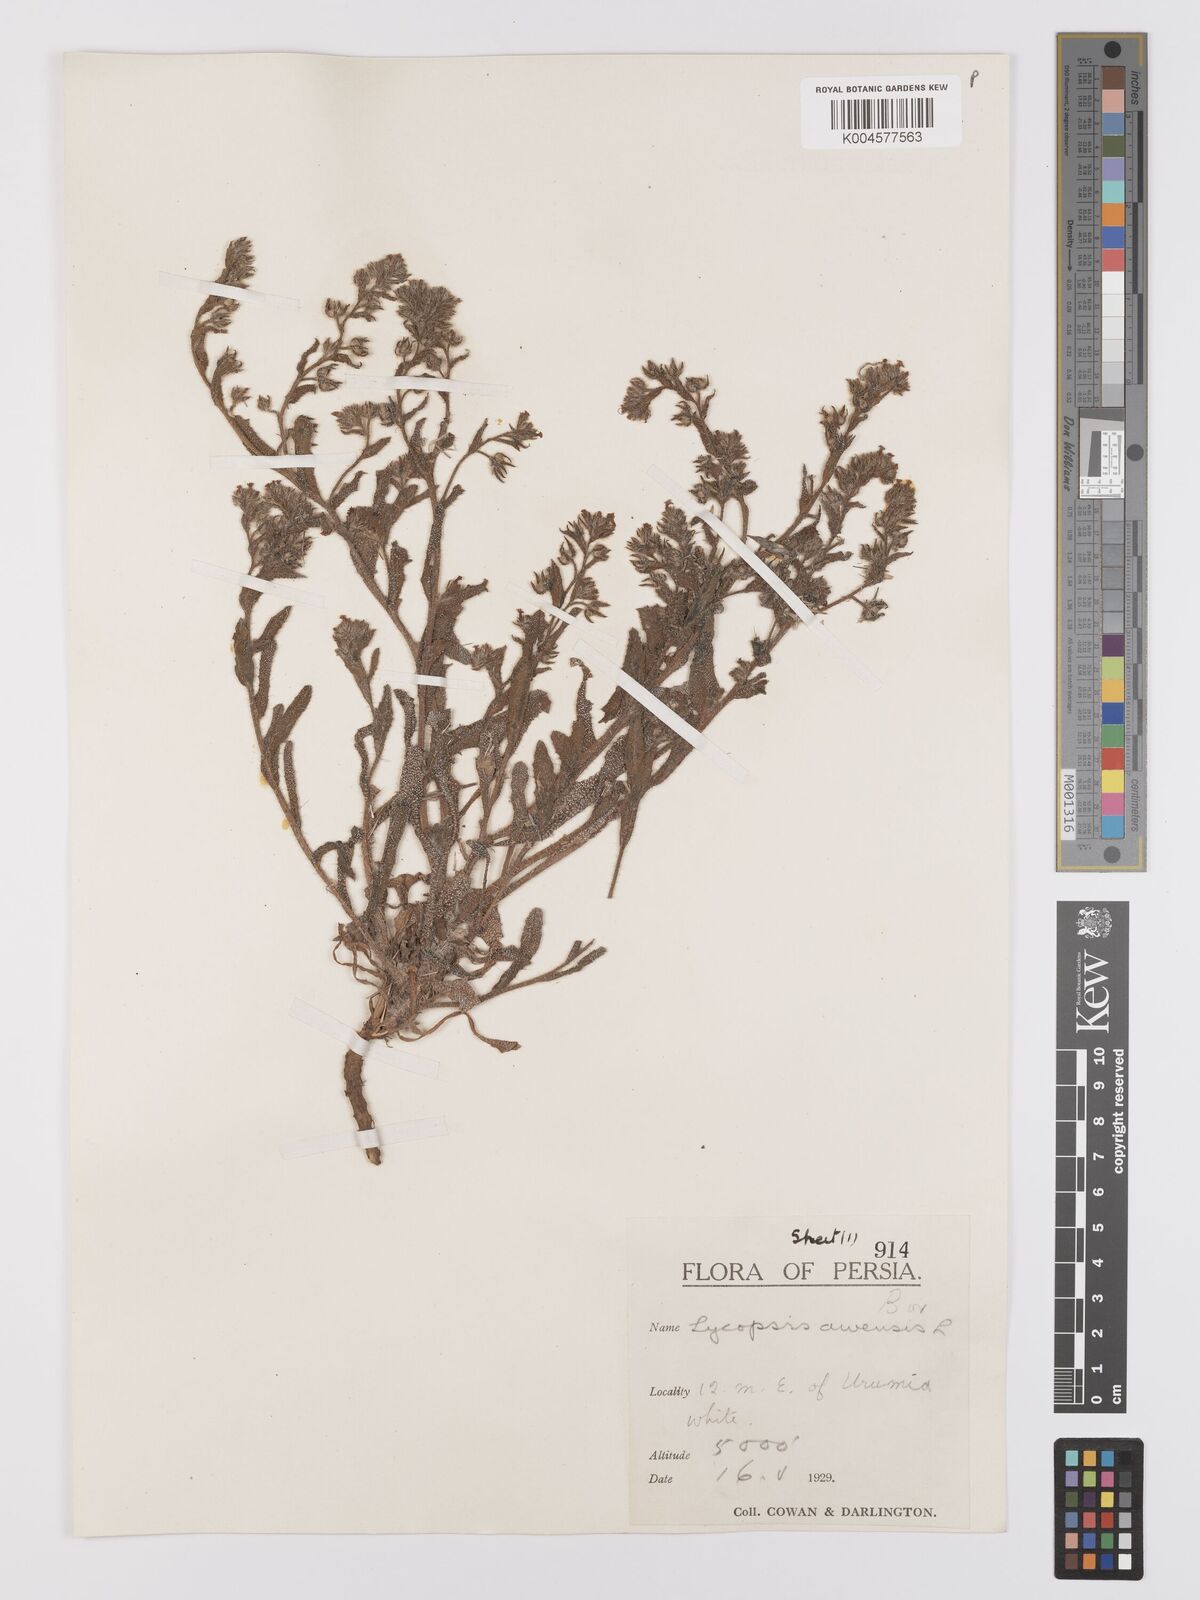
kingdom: Plantae
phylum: Tracheophyta
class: Magnoliopsida
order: Boraginales
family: Boraginaceae
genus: Lycopsis
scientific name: Lycopsis arvensis
